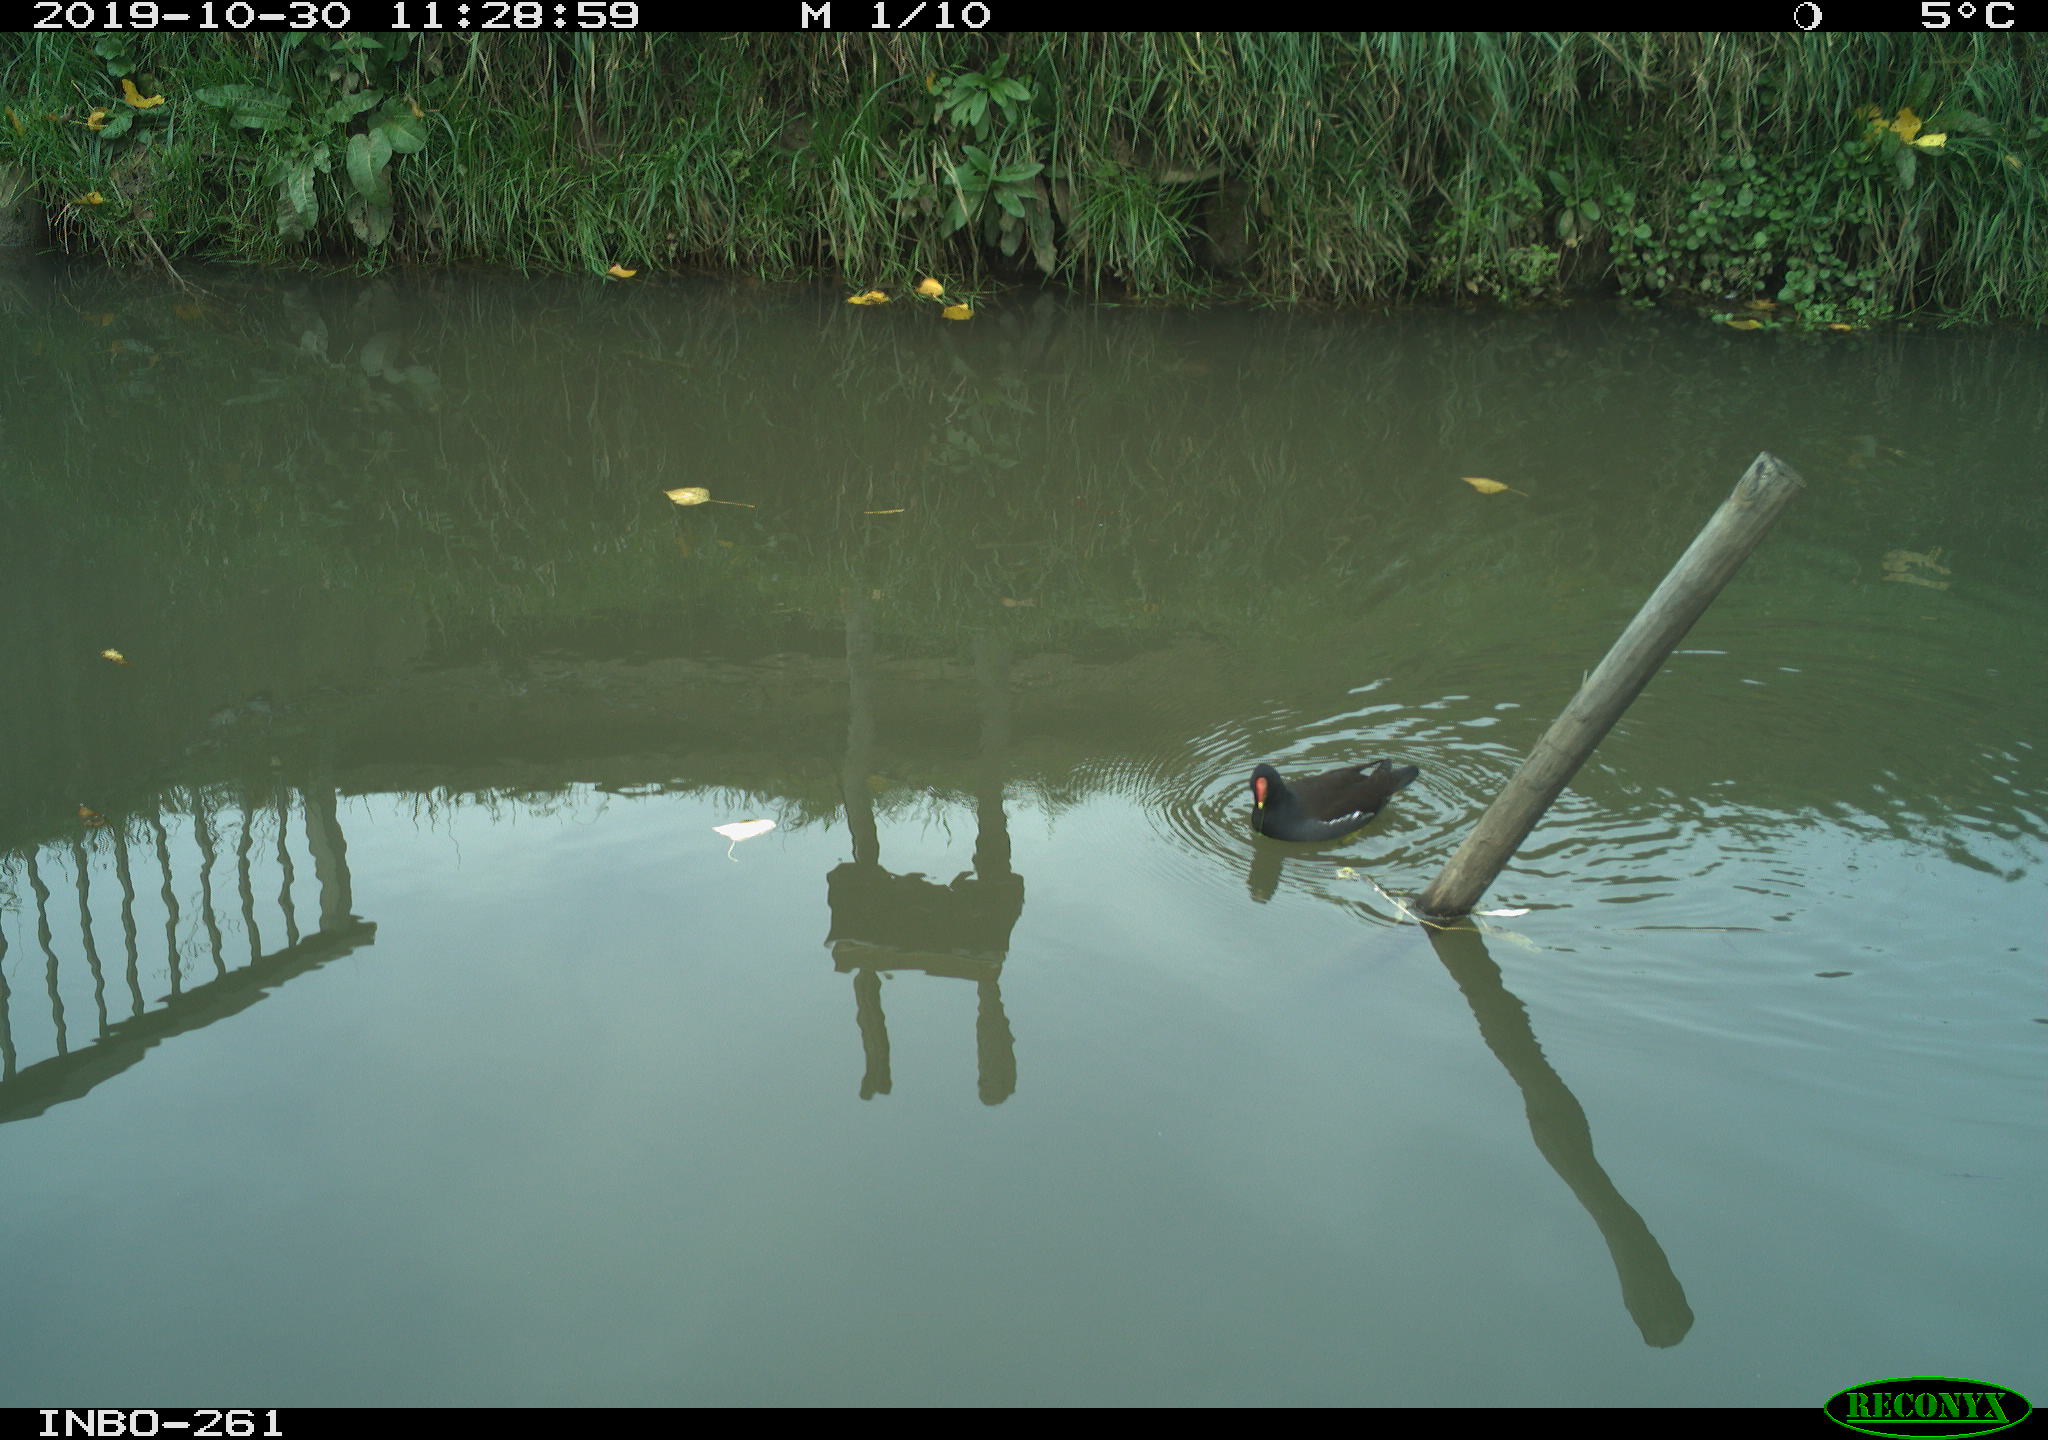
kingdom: Animalia
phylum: Chordata
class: Aves
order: Gruiformes
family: Rallidae
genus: Gallinula
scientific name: Gallinula chloropus
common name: Common moorhen
